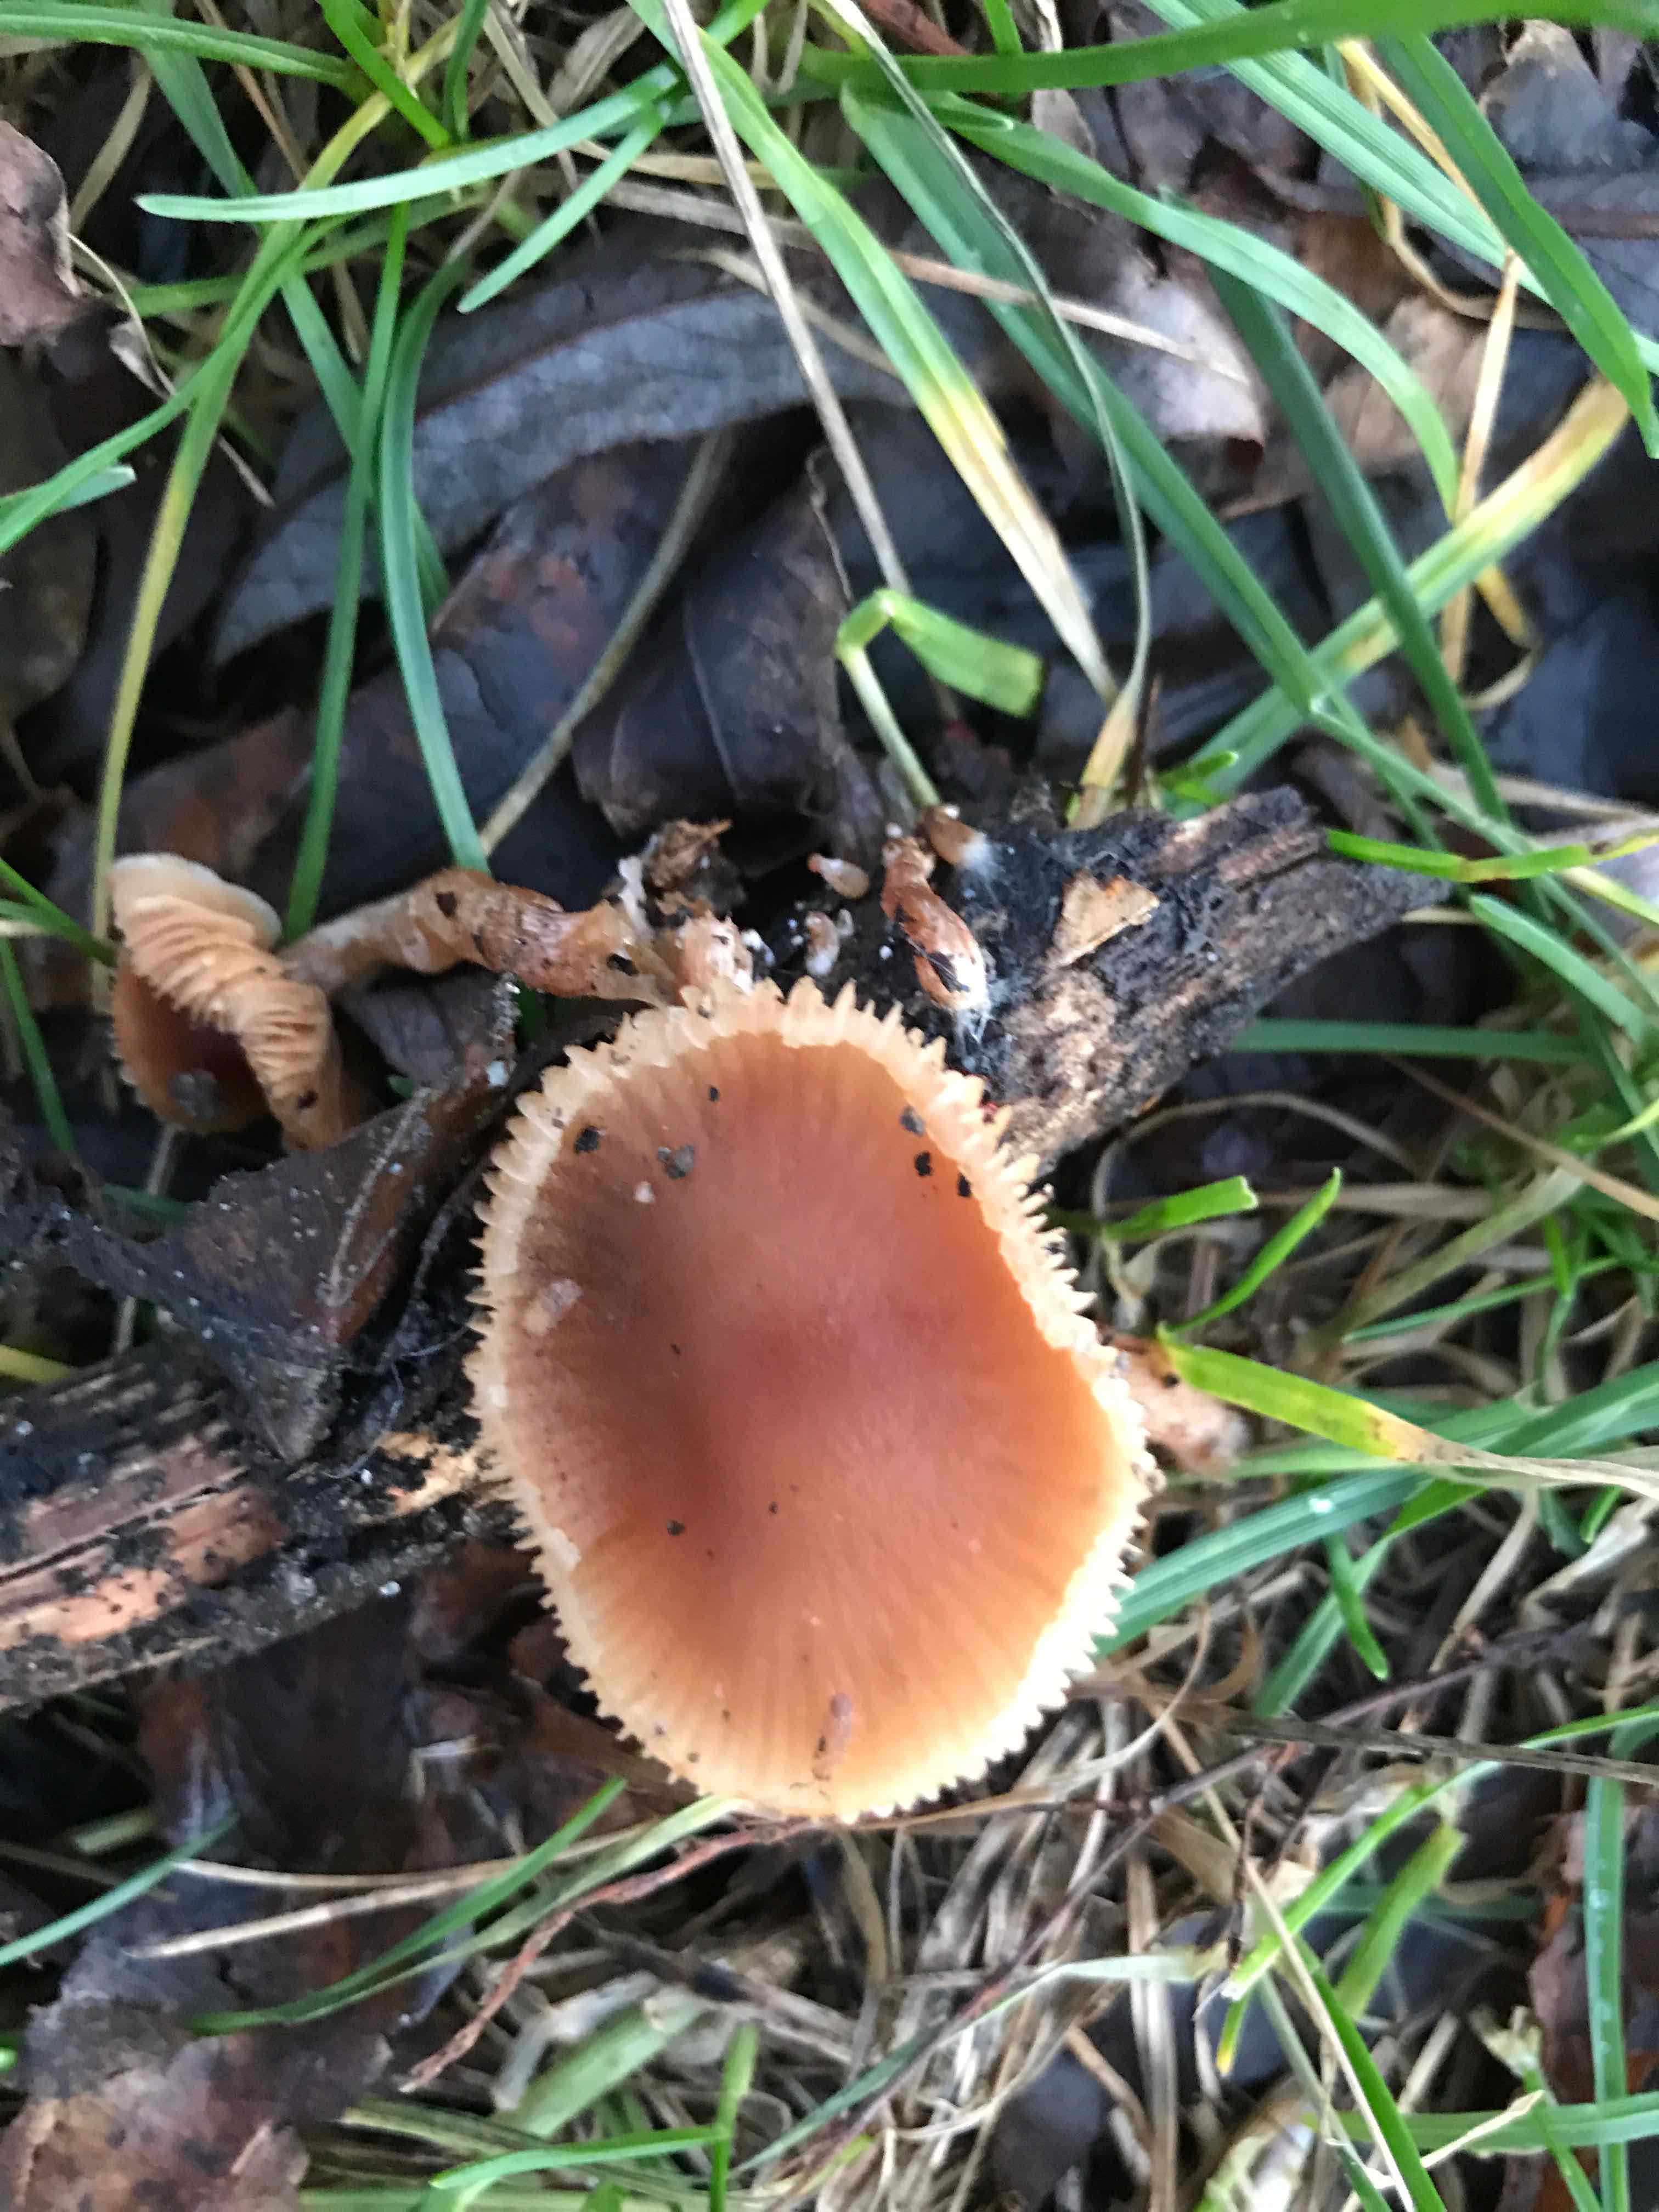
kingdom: Fungi
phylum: Basidiomycota
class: Agaricomycetes
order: Agaricales
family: Tubariaceae
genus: Tubaria
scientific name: Tubaria furfuracea
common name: kliddet fnughat
